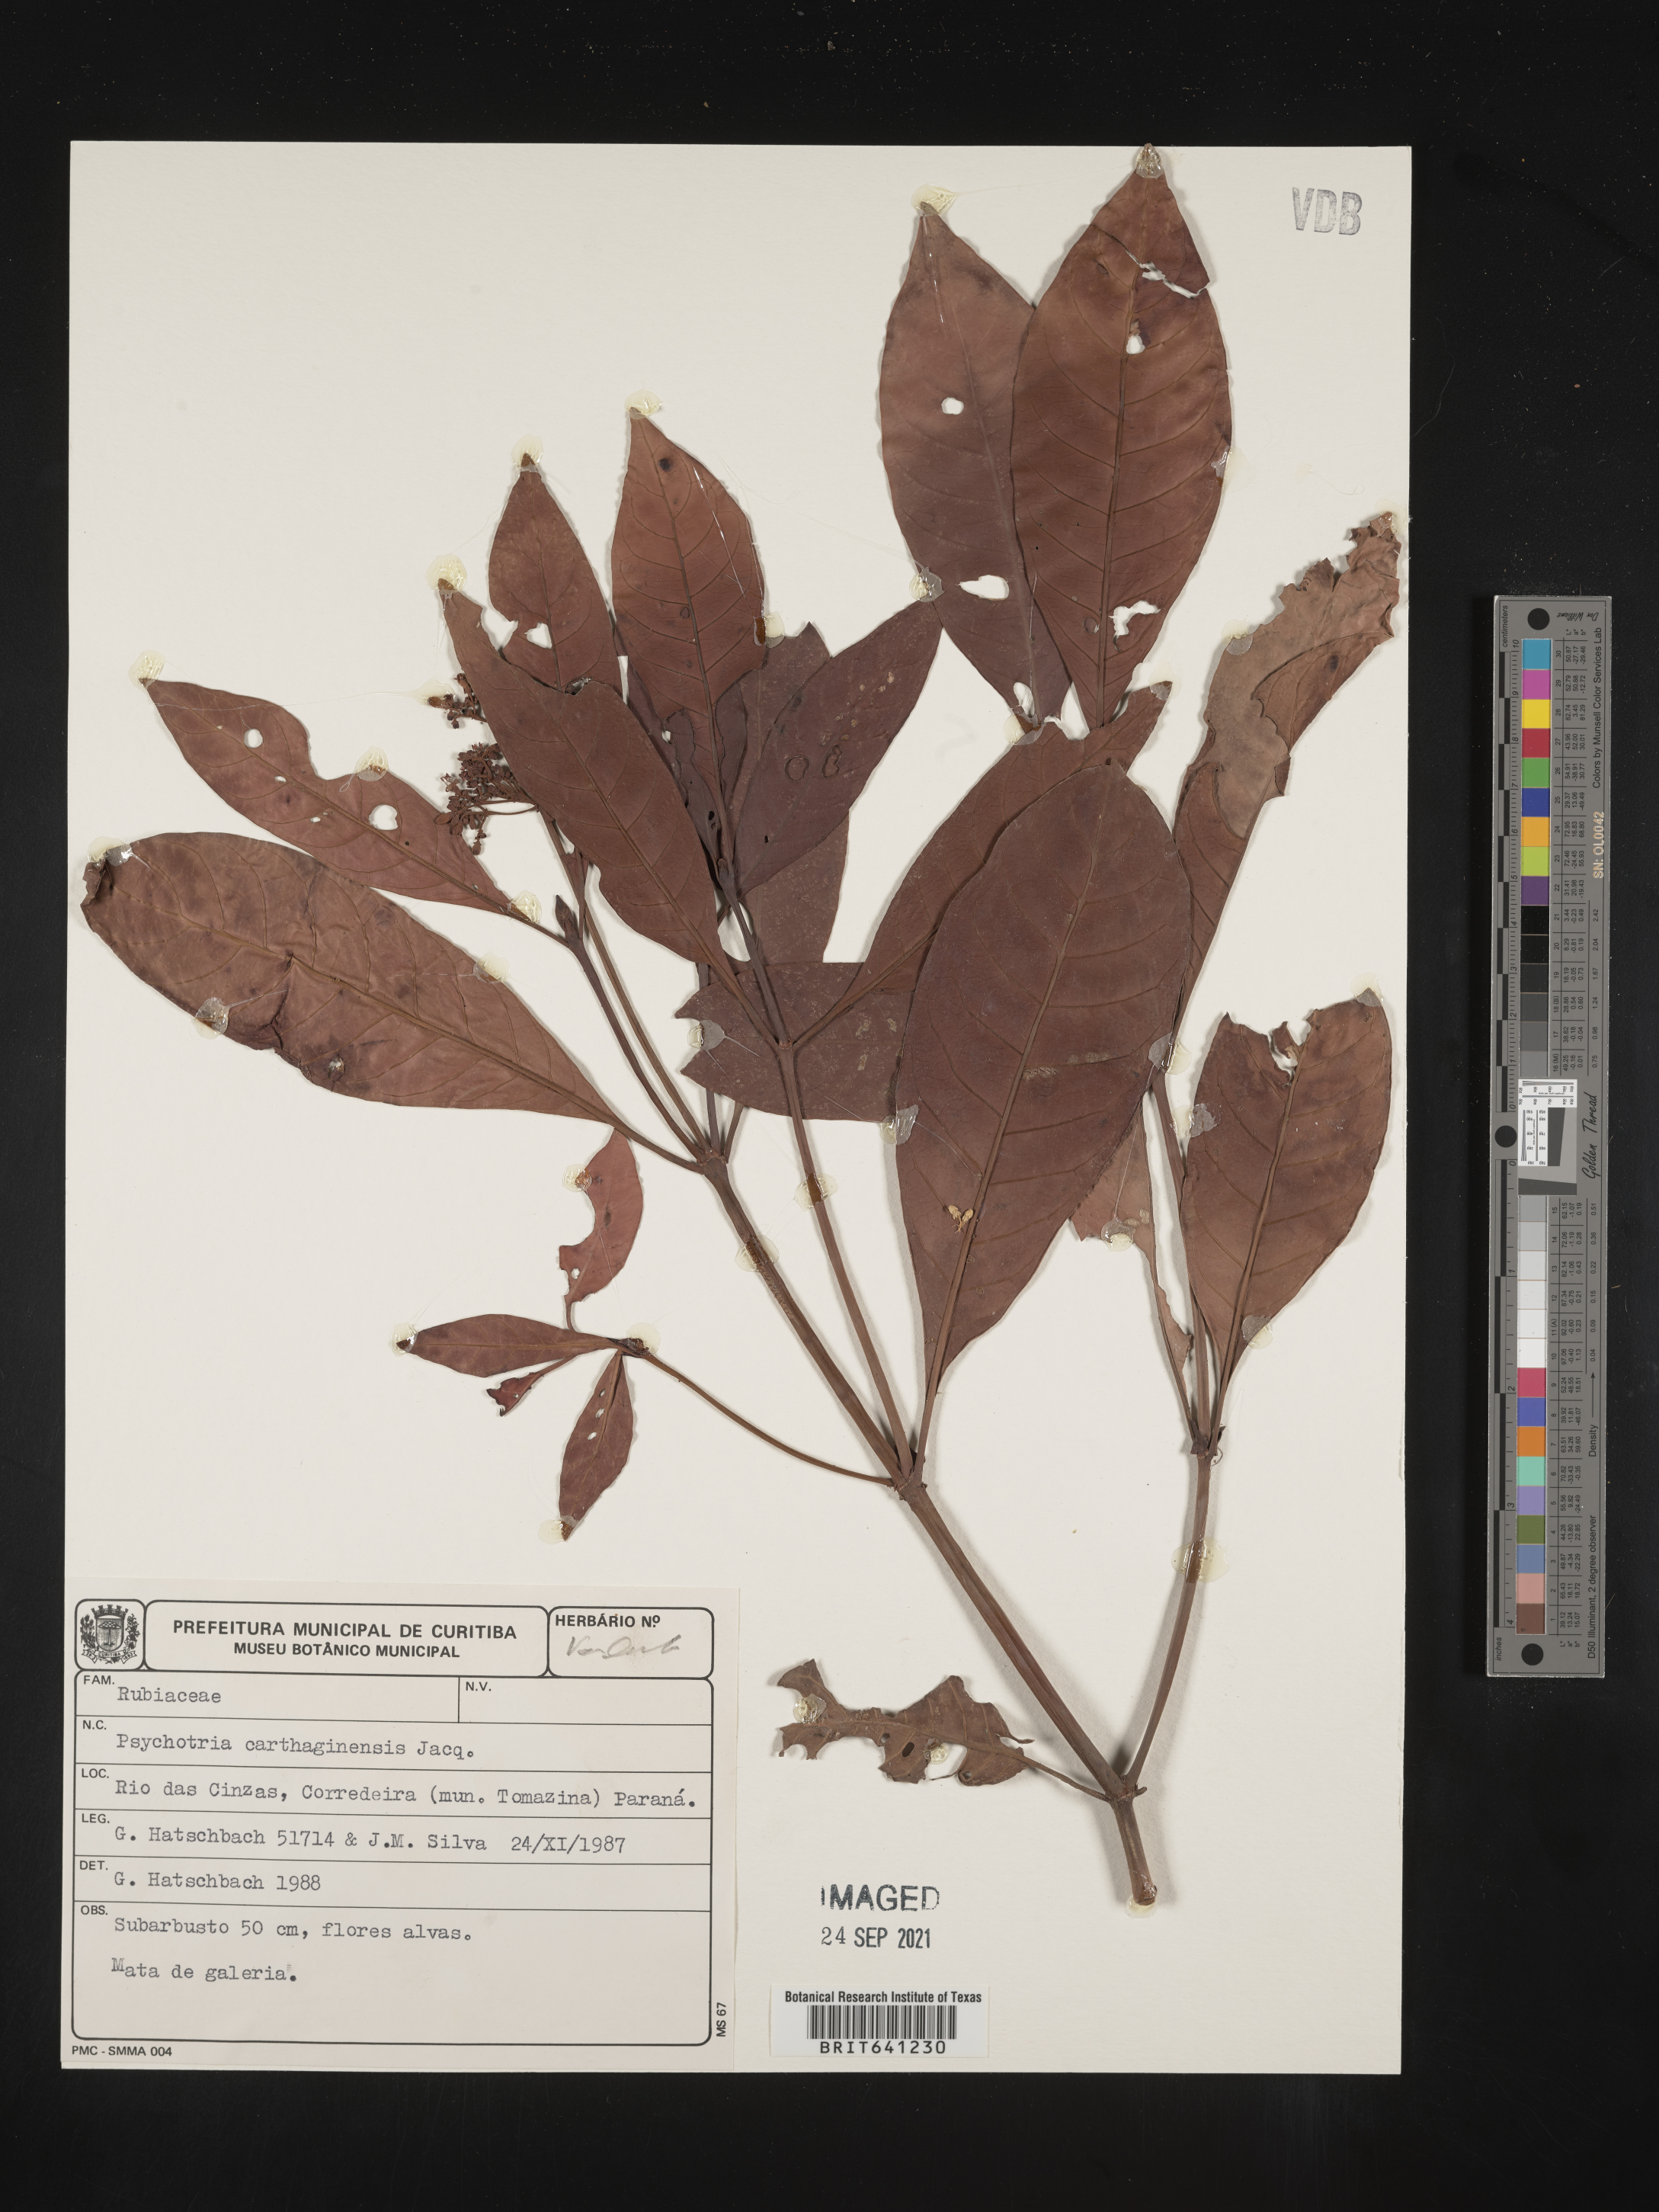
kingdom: Plantae
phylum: Tracheophyta
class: Magnoliopsida
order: Gentianales
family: Rubiaceae
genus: Psychotria
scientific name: Psychotria
